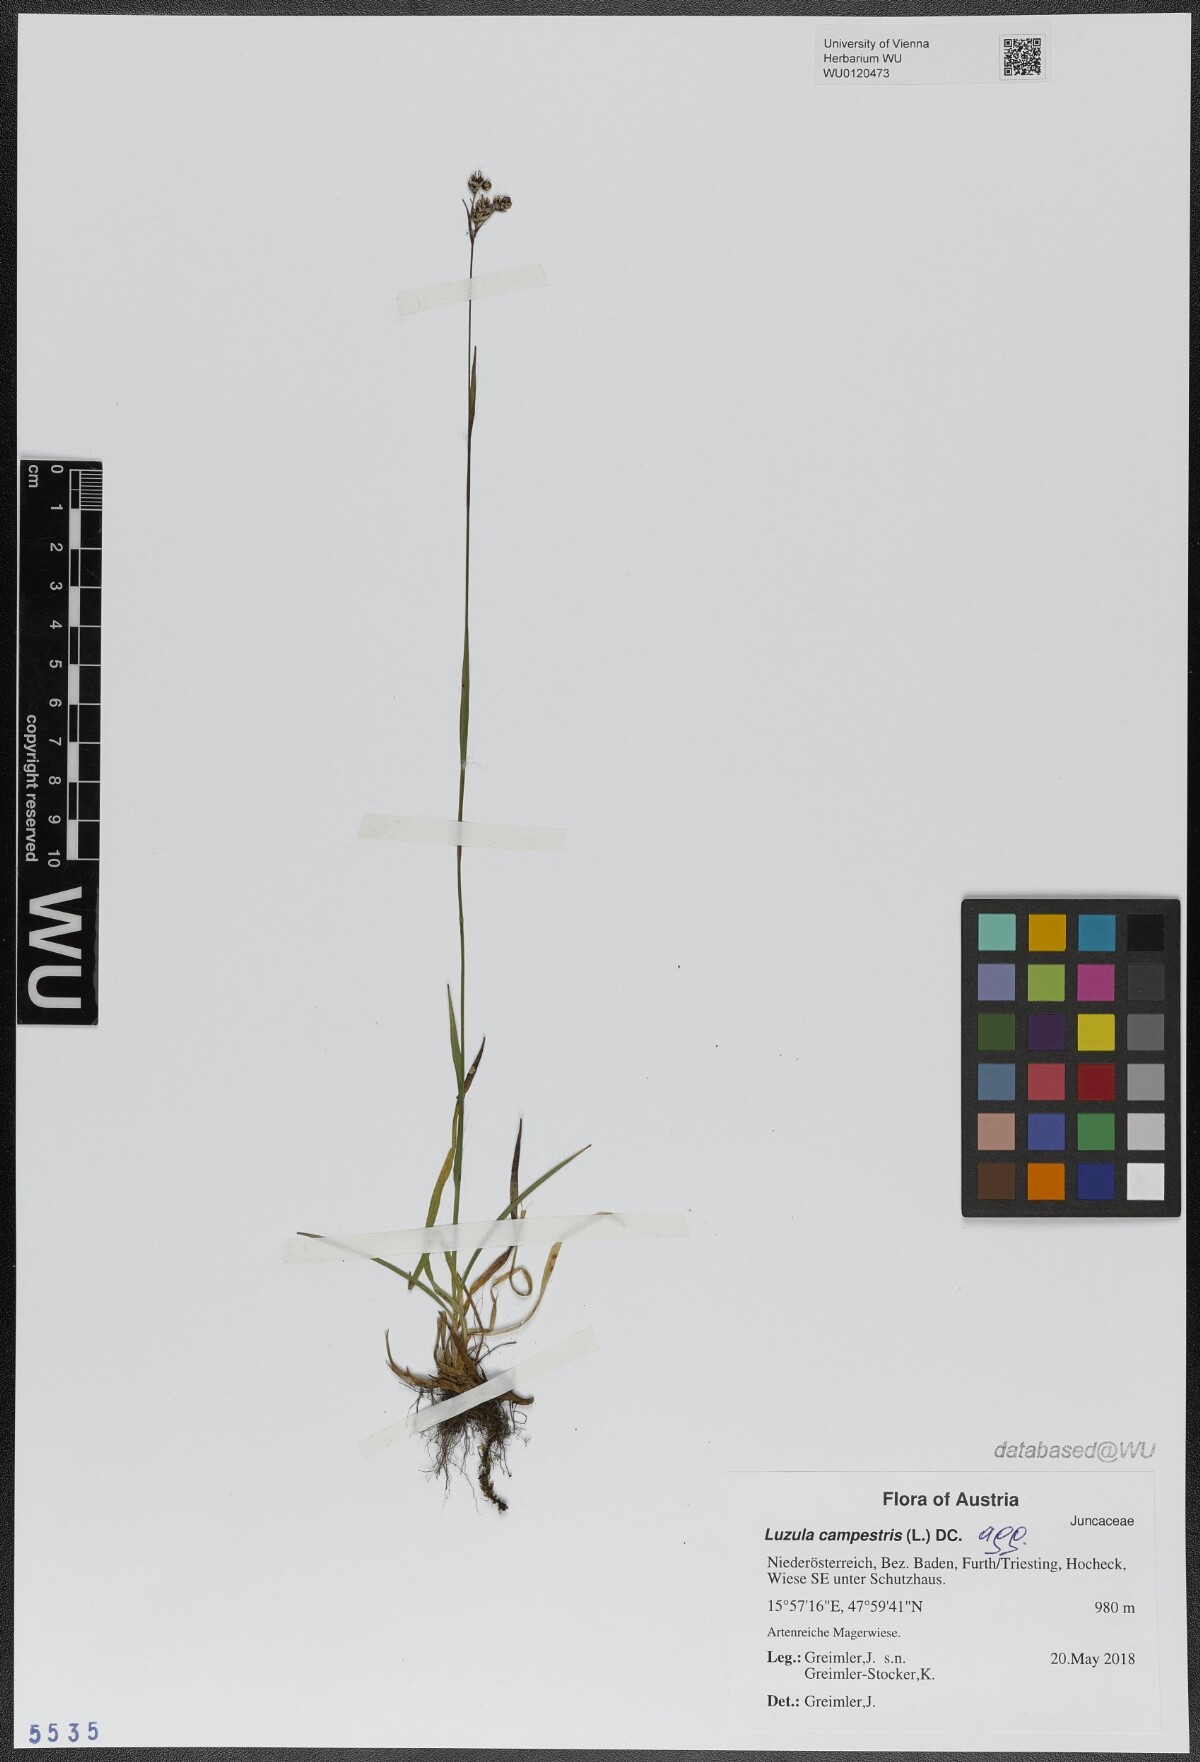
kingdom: Plantae
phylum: Tracheophyta
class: Liliopsida
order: Poales
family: Juncaceae
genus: Luzula
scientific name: Luzula campestris
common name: Field wood-rush
